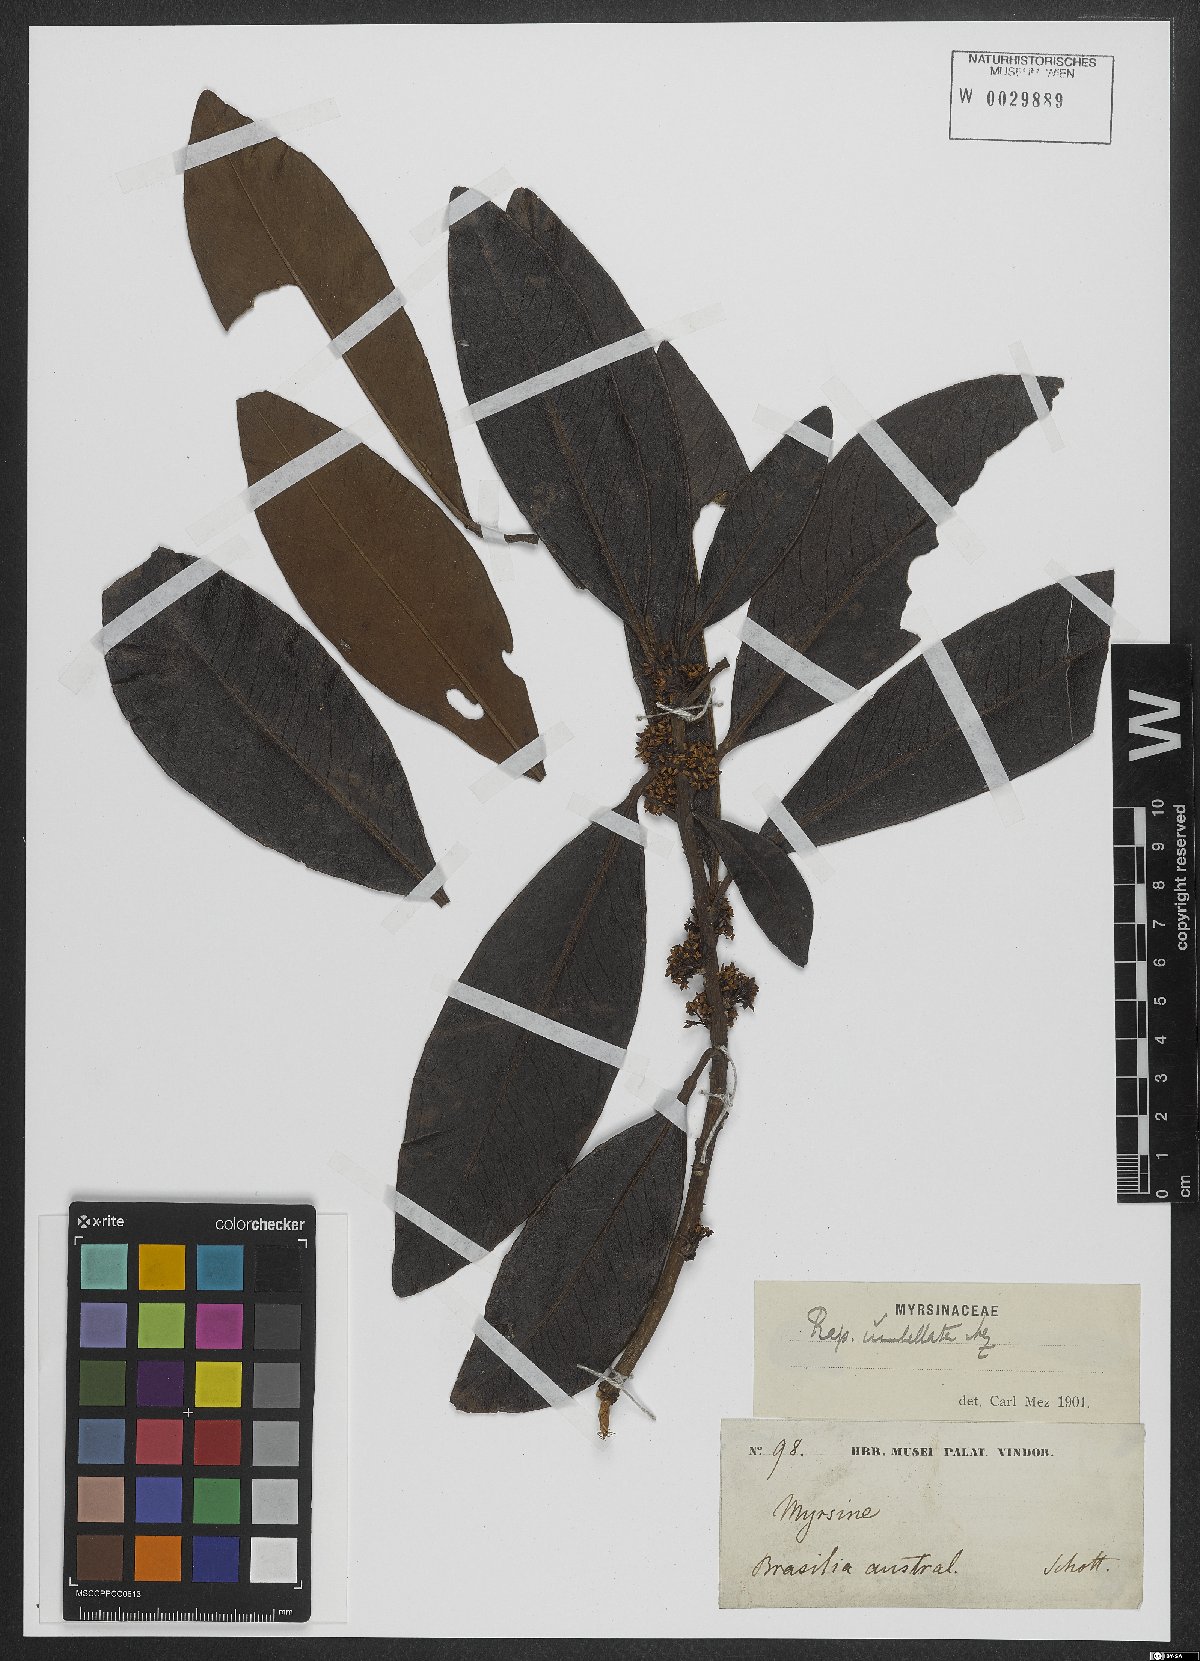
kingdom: Plantae
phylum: Tracheophyta
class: Magnoliopsida
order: Ericales
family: Primulaceae
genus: Myrsine
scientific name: Myrsine umbellata
